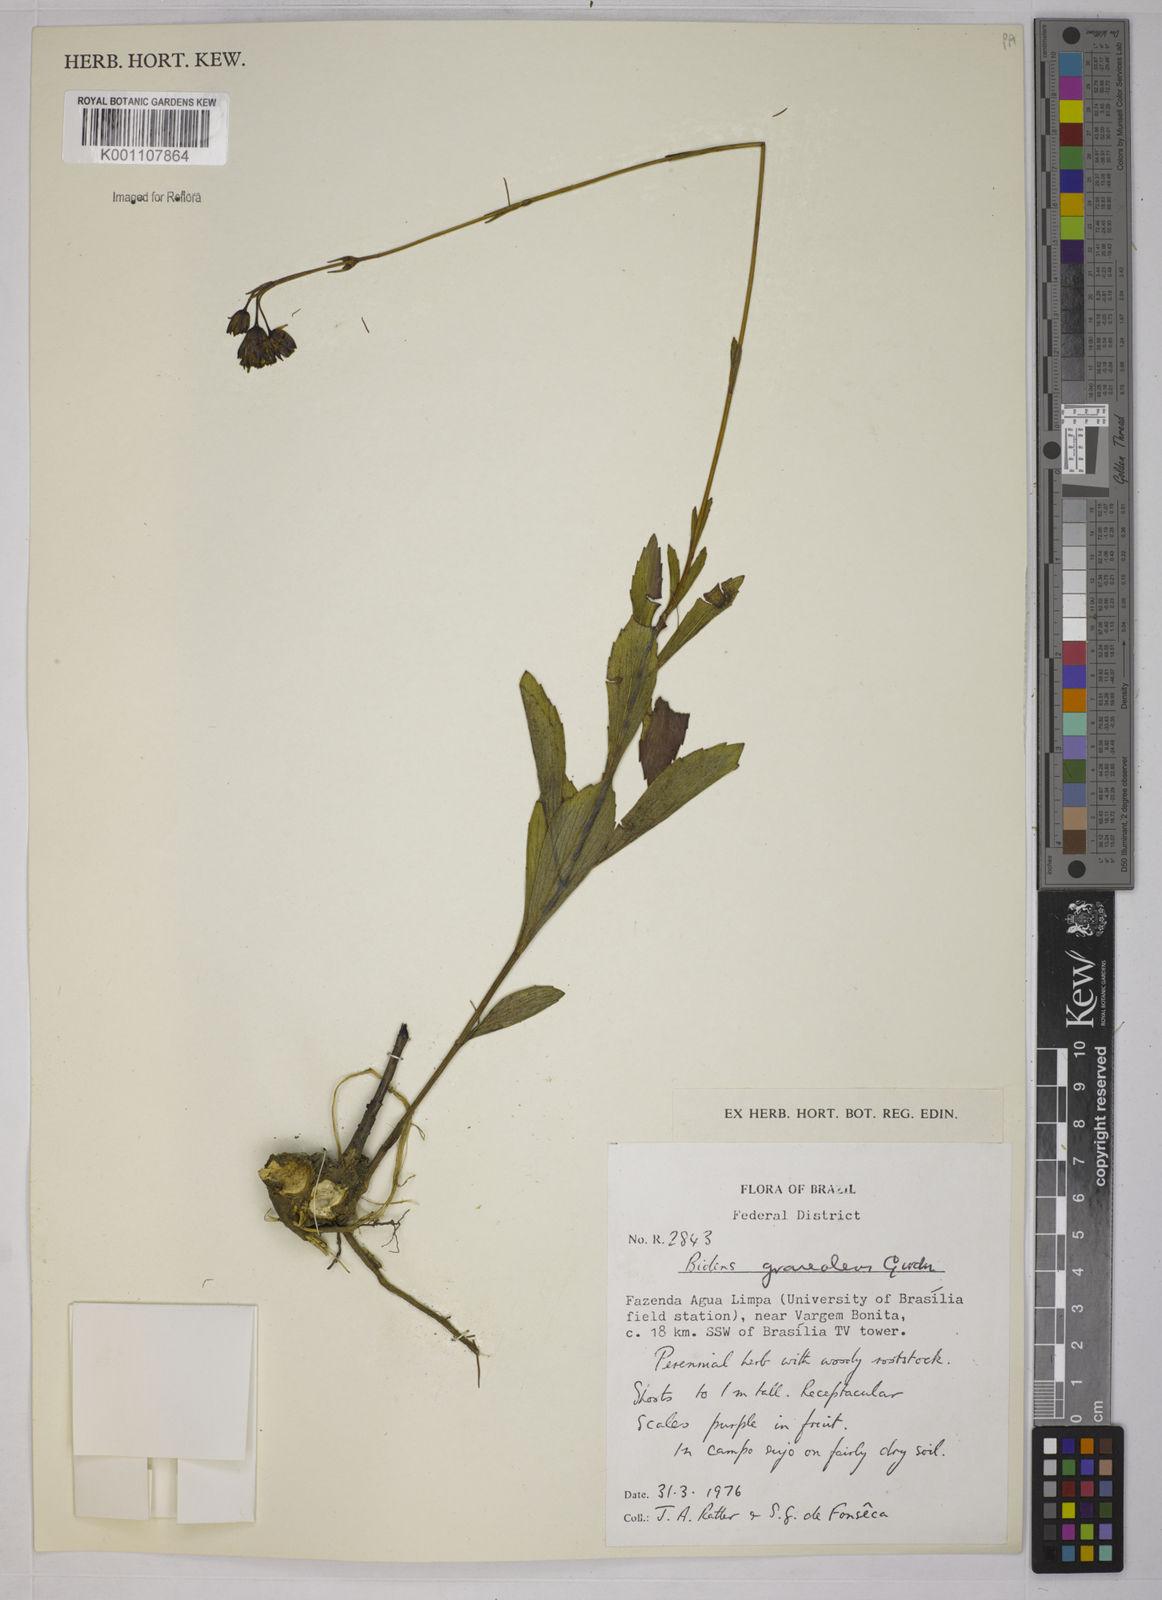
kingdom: Plantae
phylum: Tracheophyta
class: Magnoliopsida
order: Asterales
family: Asteraceae
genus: Bidens
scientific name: Bidens
